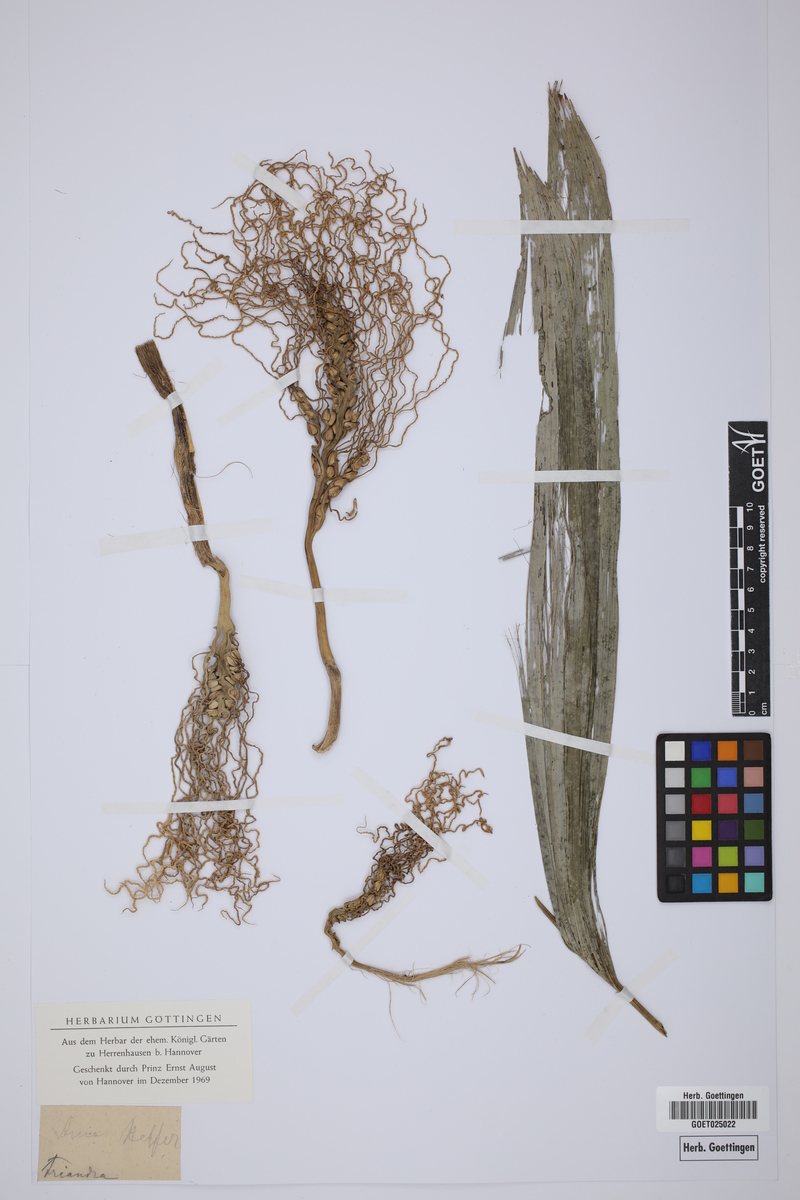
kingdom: Plantae
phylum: Tracheophyta
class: Liliopsida
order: Arecales
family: Arecaceae
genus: Areca
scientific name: Areca triandra
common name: Australian areca palm
